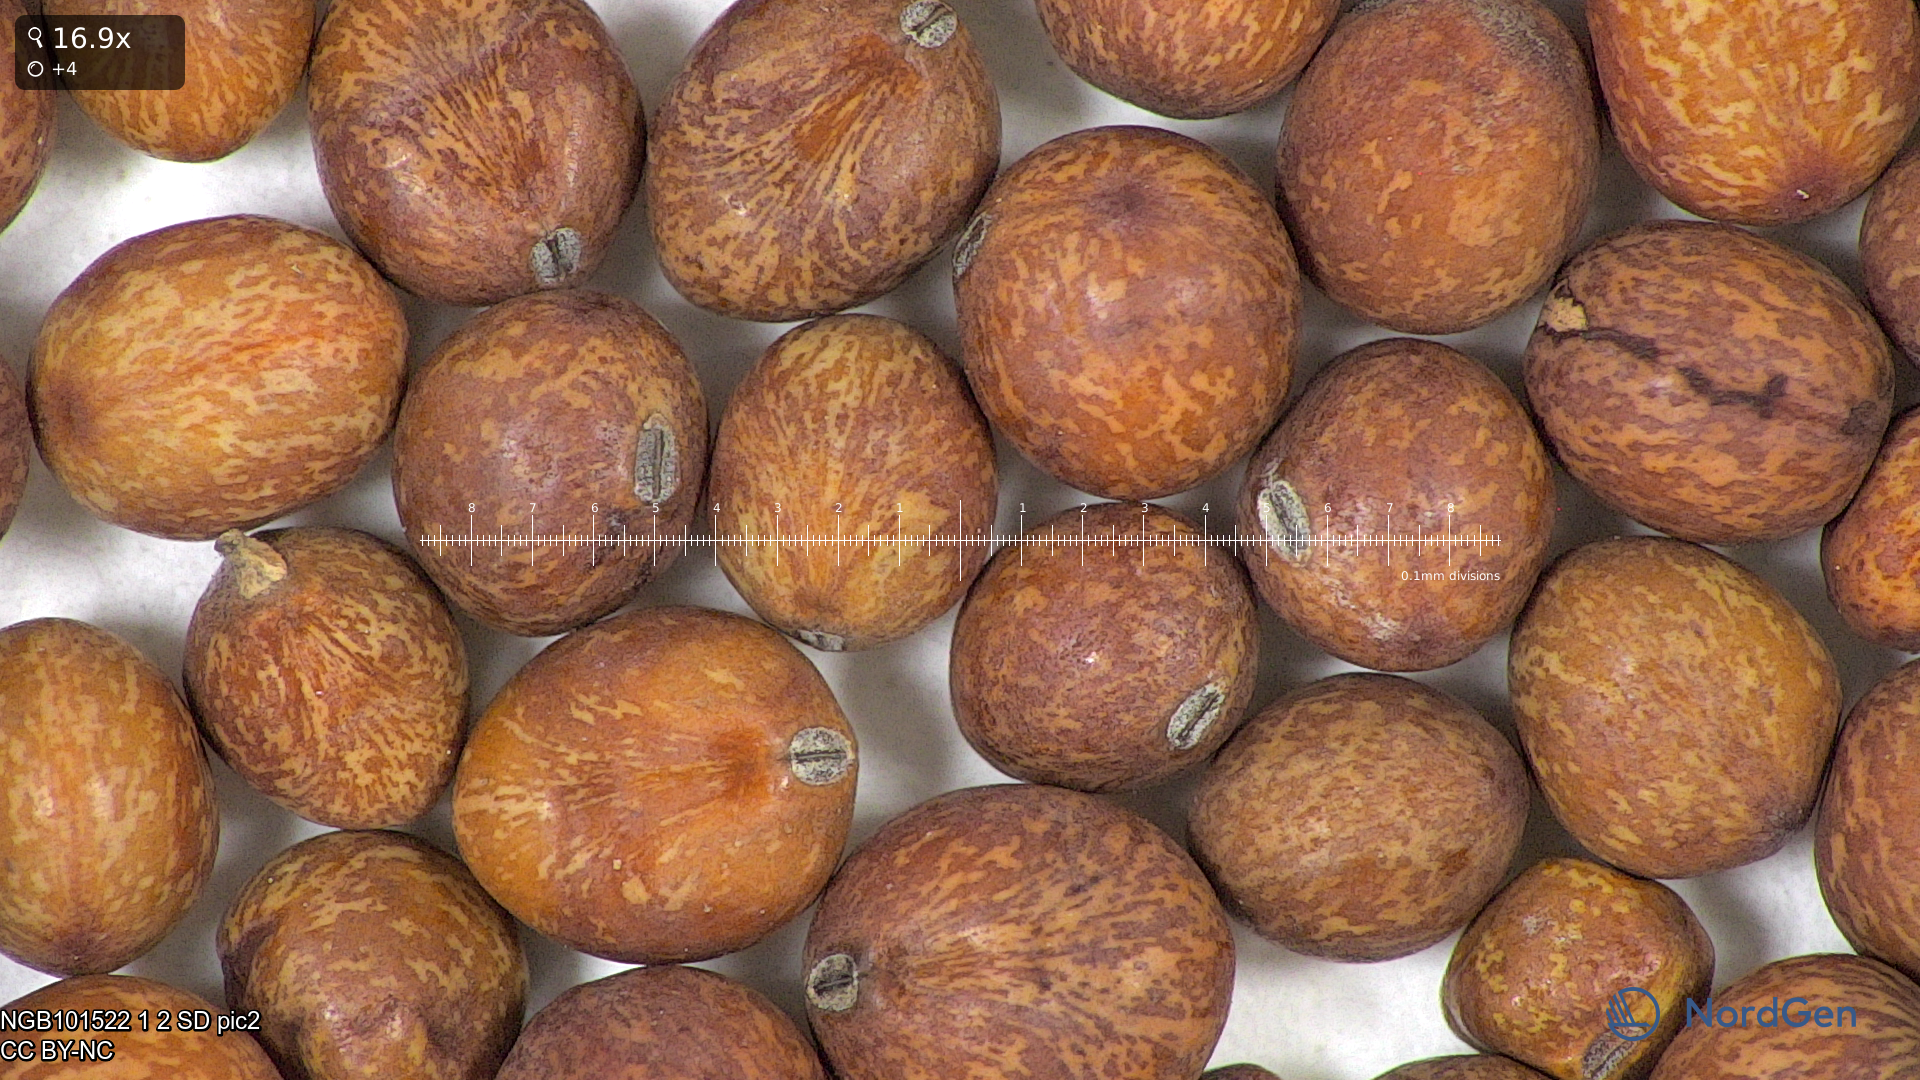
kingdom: Plantae
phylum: Tracheophyta
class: Magnoliopsida
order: Fabales
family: Fabaceae
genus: Lathyrus
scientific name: Lathyrus oleraceus
